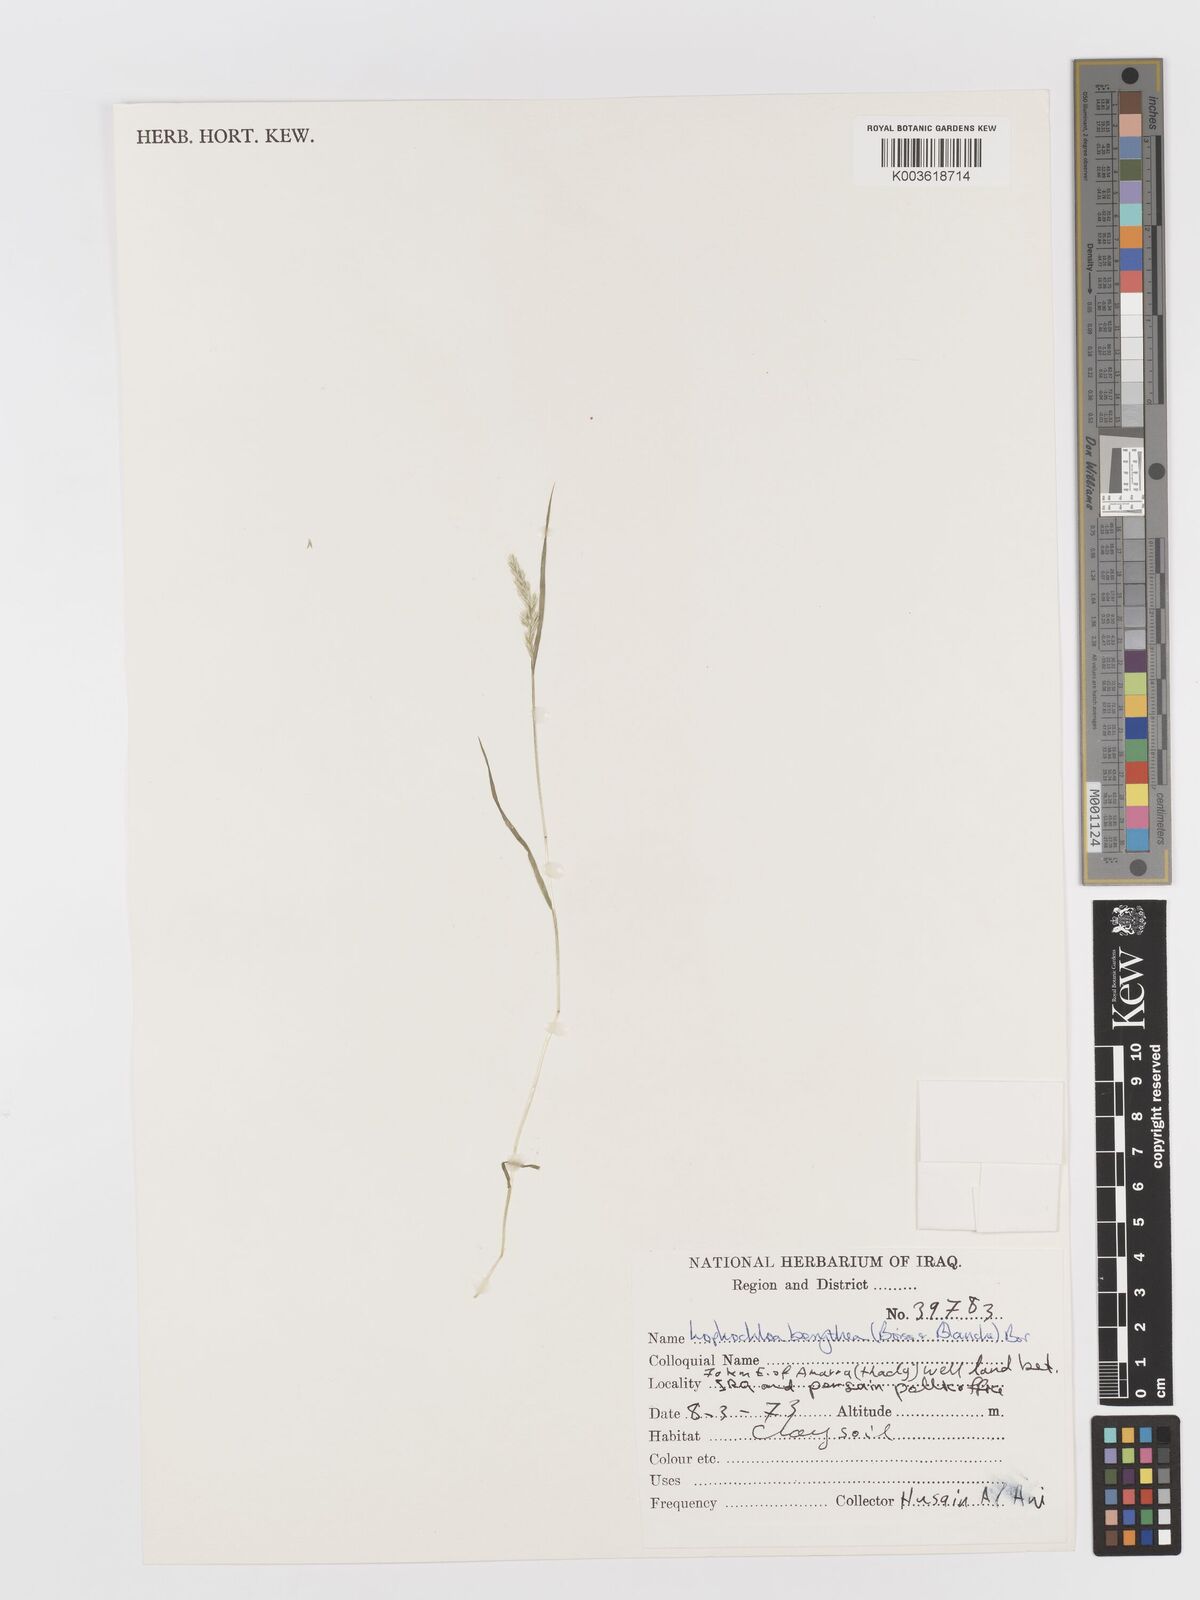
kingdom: Plantae
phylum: Tracheophyta
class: Liliopsida
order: Poales
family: Poaceae
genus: Rostraria
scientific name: Rostraria smyrnaea
